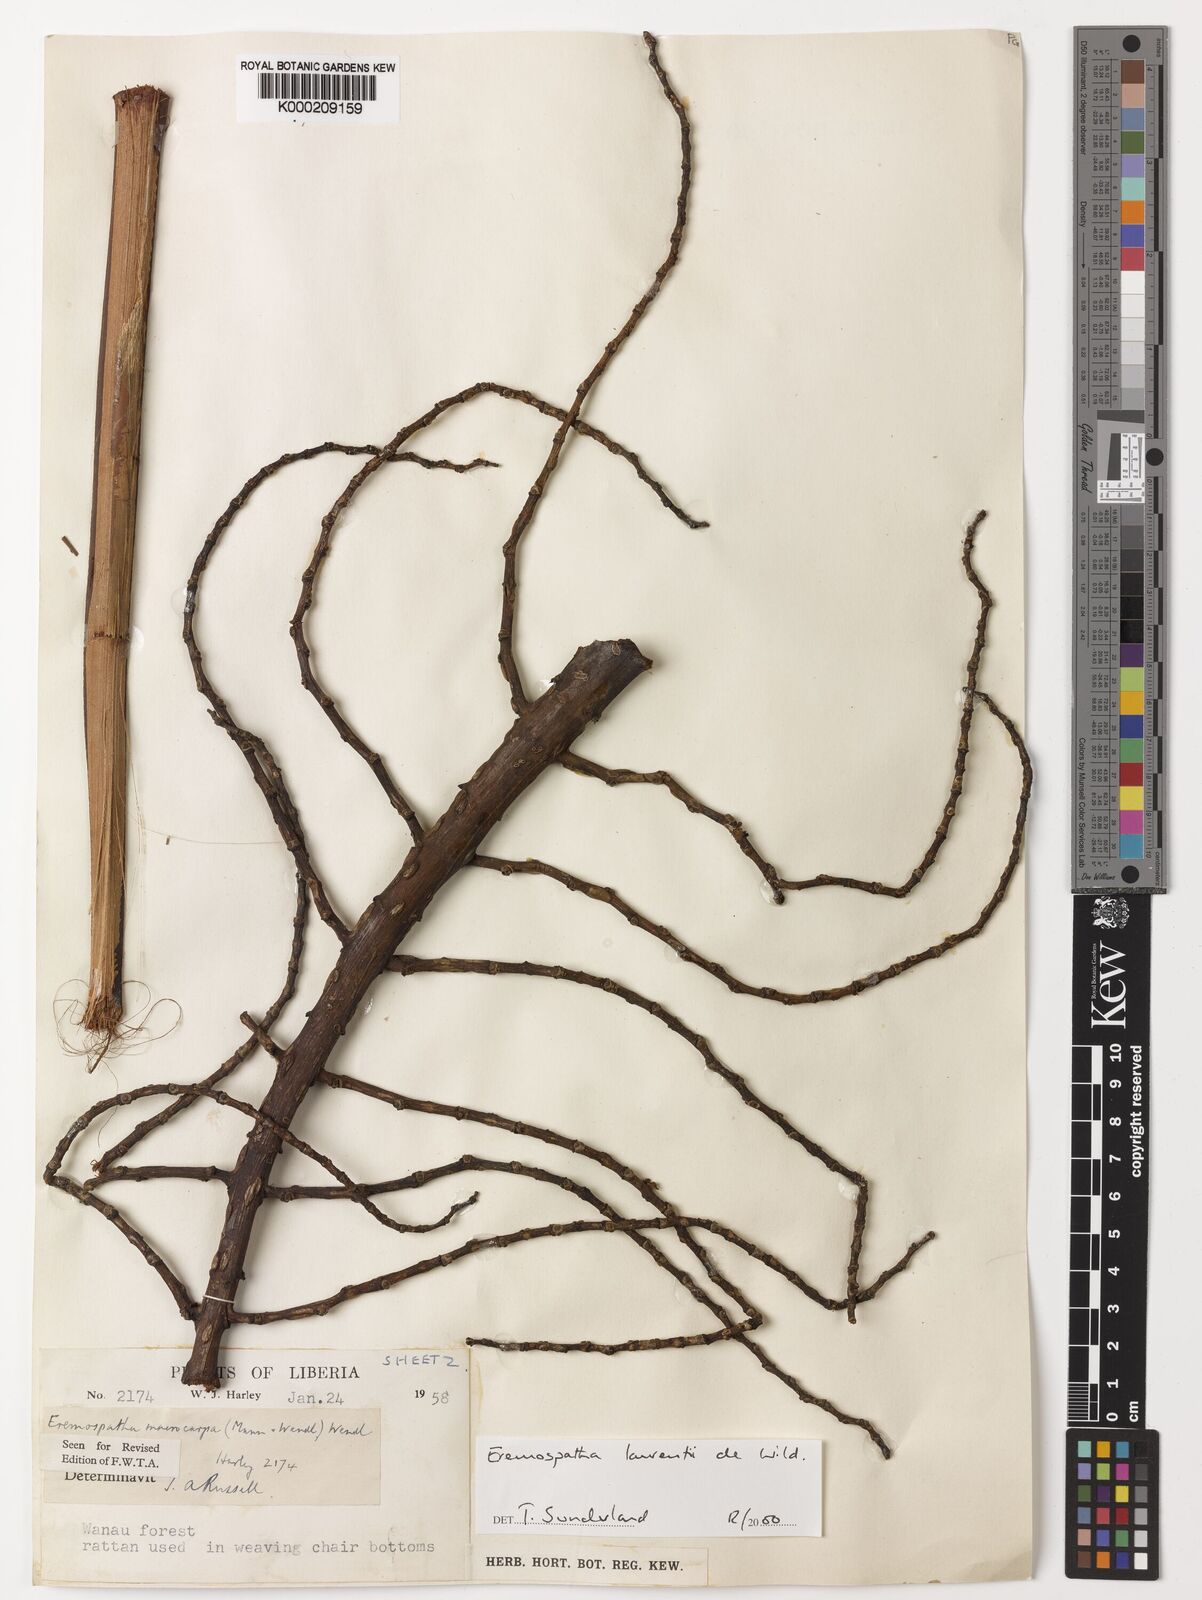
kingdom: Plantae
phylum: Tracheophyta
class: Liliopsida
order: Arecales
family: Arecaceae
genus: Eremospatha
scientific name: Eremospatha laurentii
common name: Rattan palm
